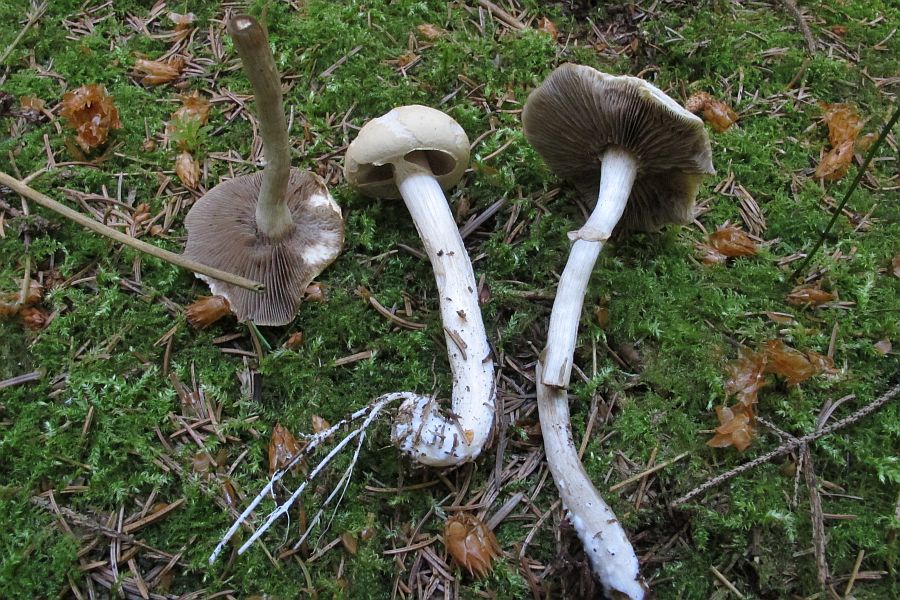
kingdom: Fungi
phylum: Basidiomycota
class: Agaricomycetes
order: Agaricales
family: Strophariaceae
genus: Agrocybe
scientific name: Agrocybe praecox
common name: tidlig agerhat
